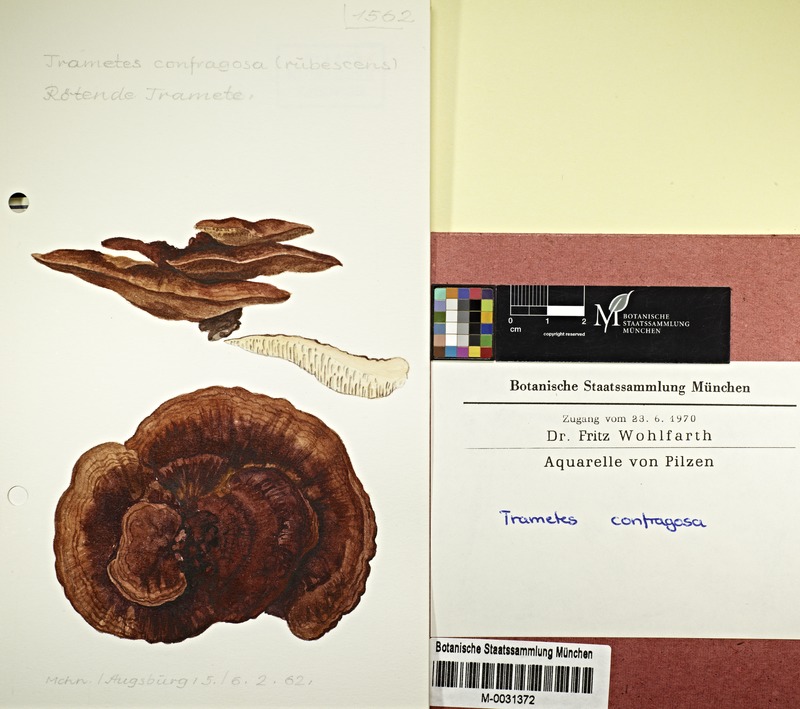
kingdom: Fungi
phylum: Basidiomycota
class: Agaricomycetes
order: Polyporales
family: Polyporaceae
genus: Daedaleopsis
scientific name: Daedaleopsis confragosa
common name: Blushing bracket
